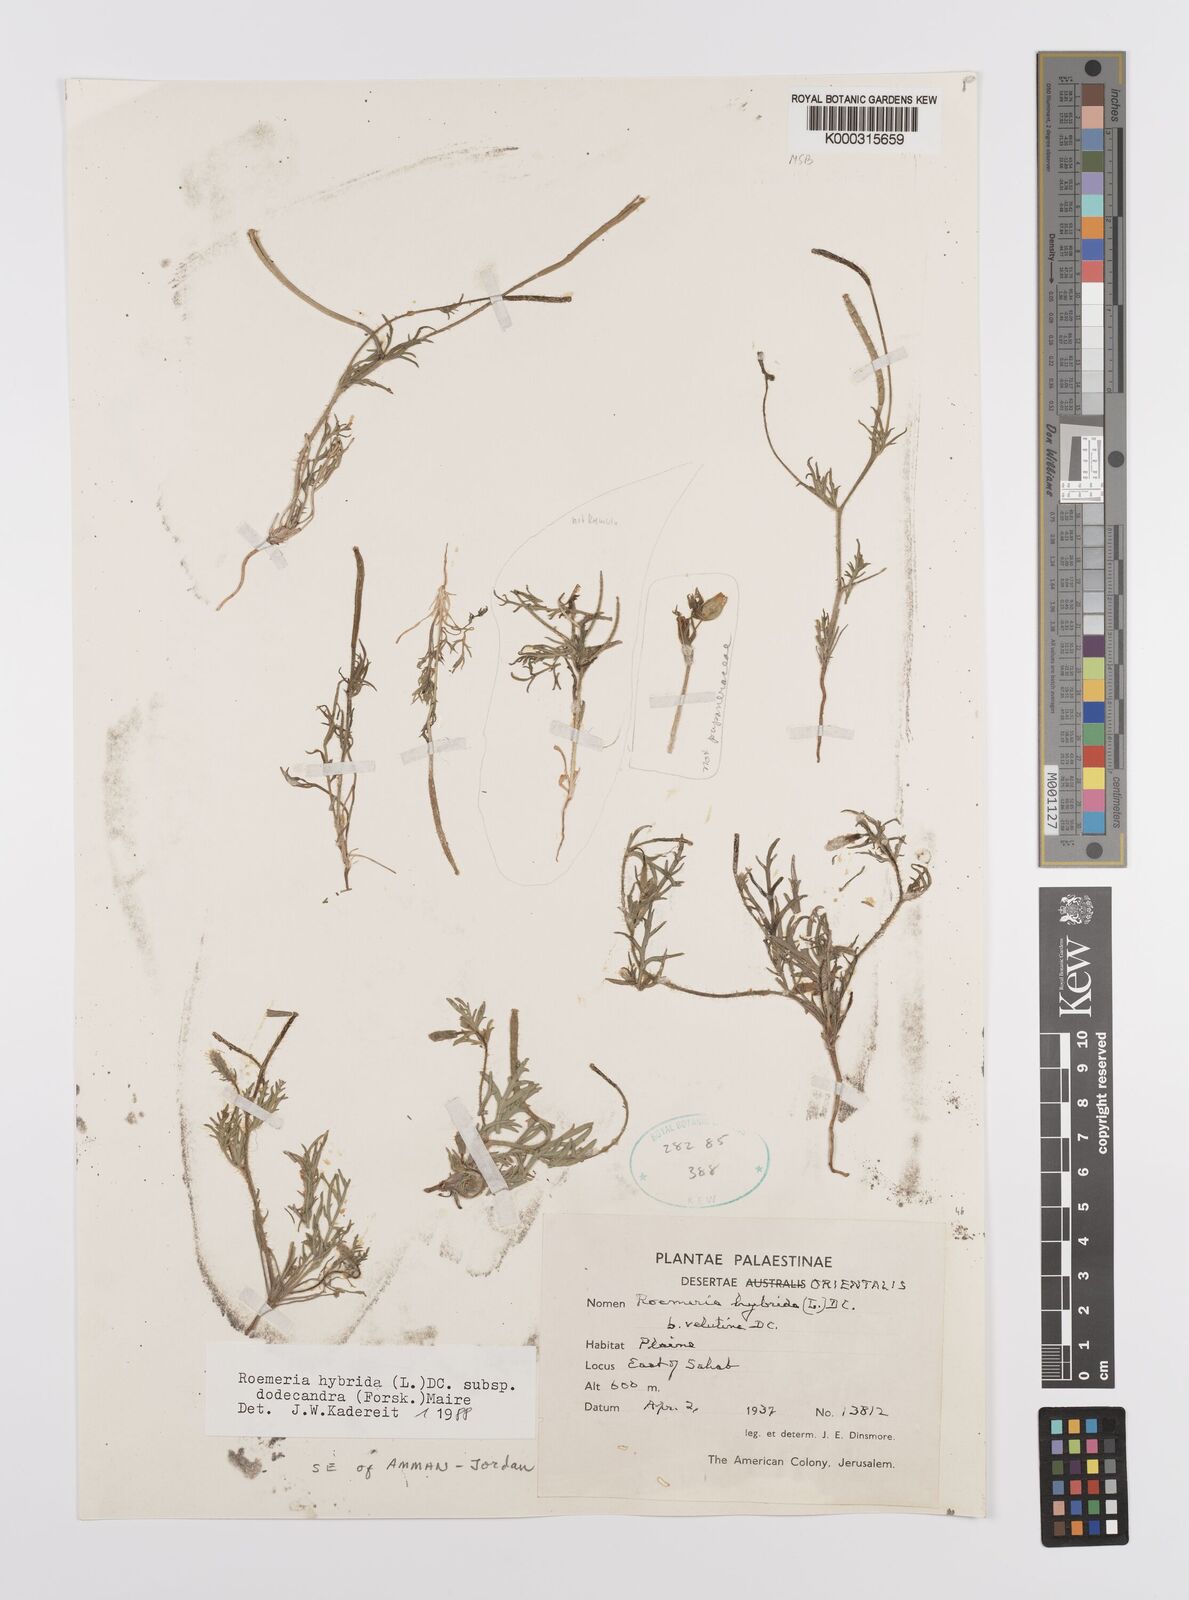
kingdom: Plantae
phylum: Tracheophyta
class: Magnoliopsida
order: Ranunculales
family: Papaveraceae
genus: Roemeria
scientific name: Roemeria hybrida
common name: Violet horned-poppy
